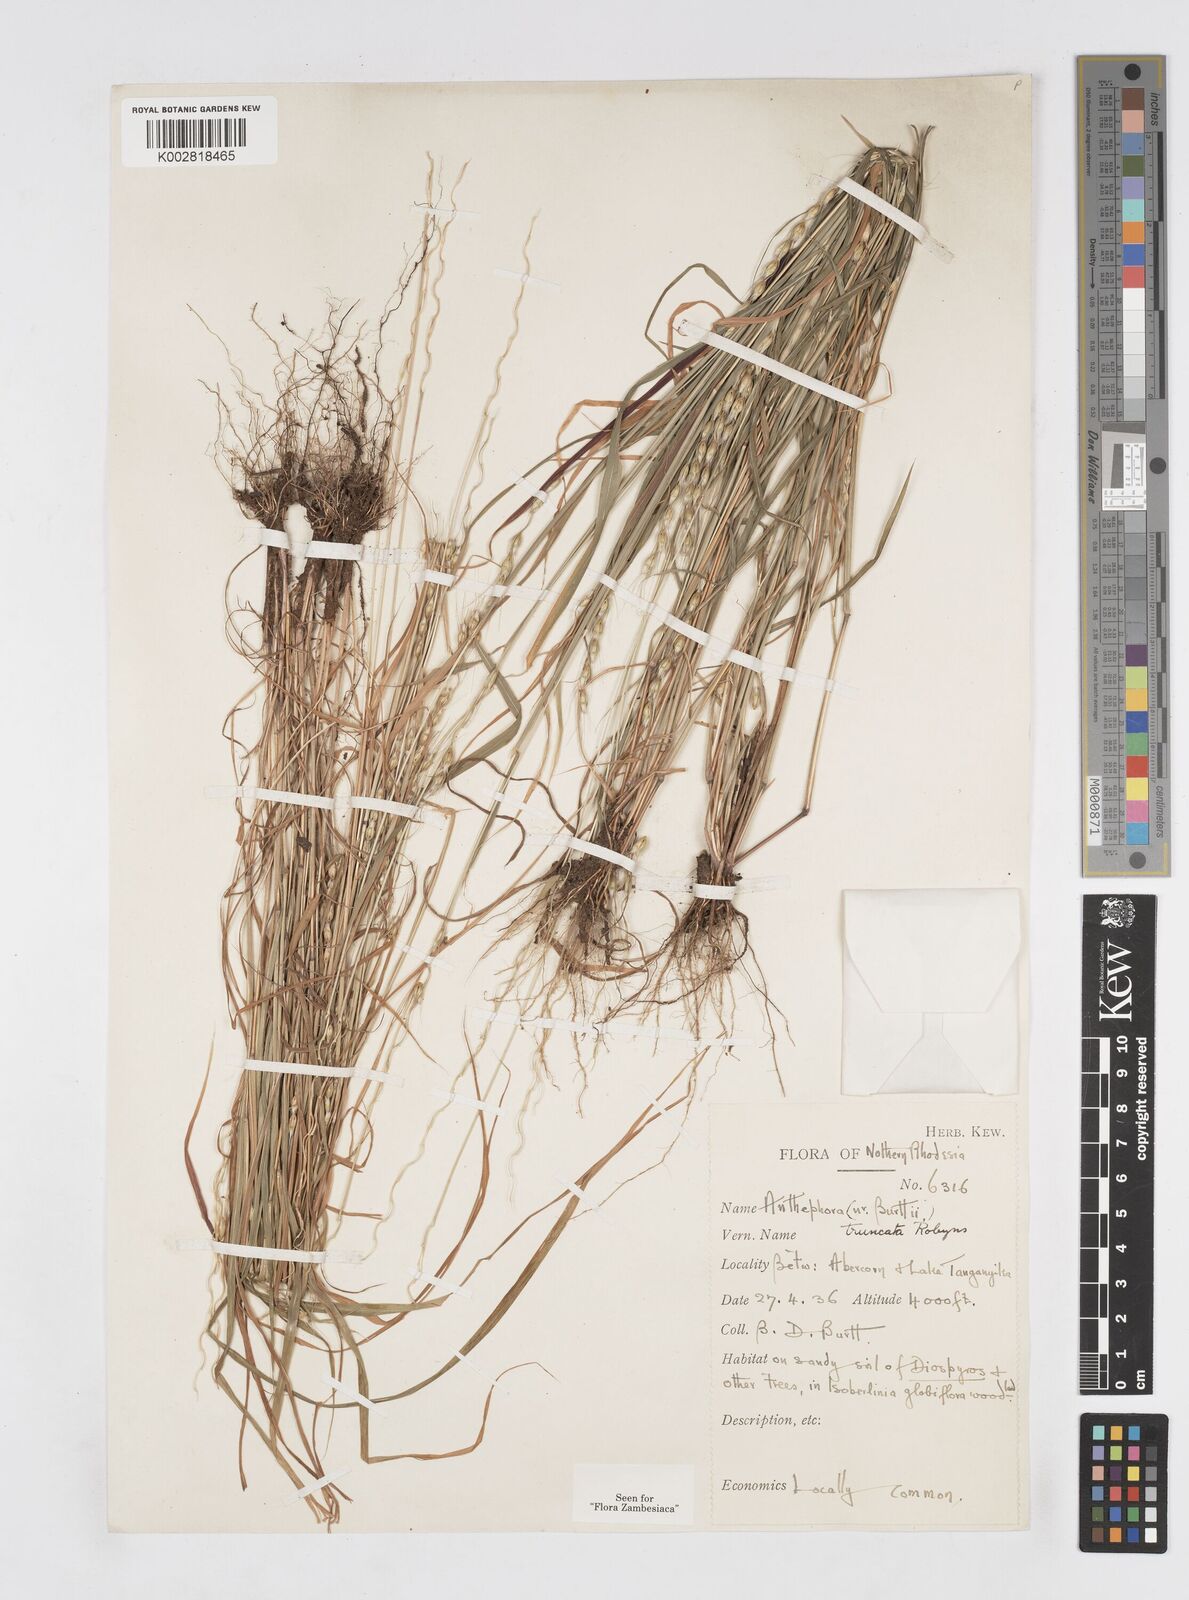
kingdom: Plantae
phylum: Tracheophyta
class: Liliopsida
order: Poales
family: Poaceae
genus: Anthephora
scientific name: Anthephora truncata
